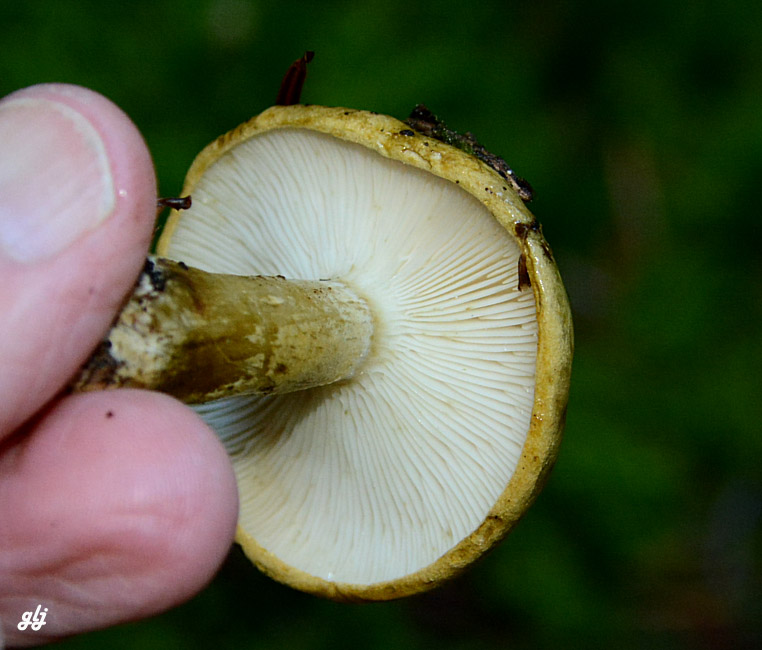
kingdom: Fungi
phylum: Basidiomycota
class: Agaricomycetes
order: Russulales
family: Russulaceae
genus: Lactarius
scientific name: Lactarius necator
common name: manddraber-mælkehat
